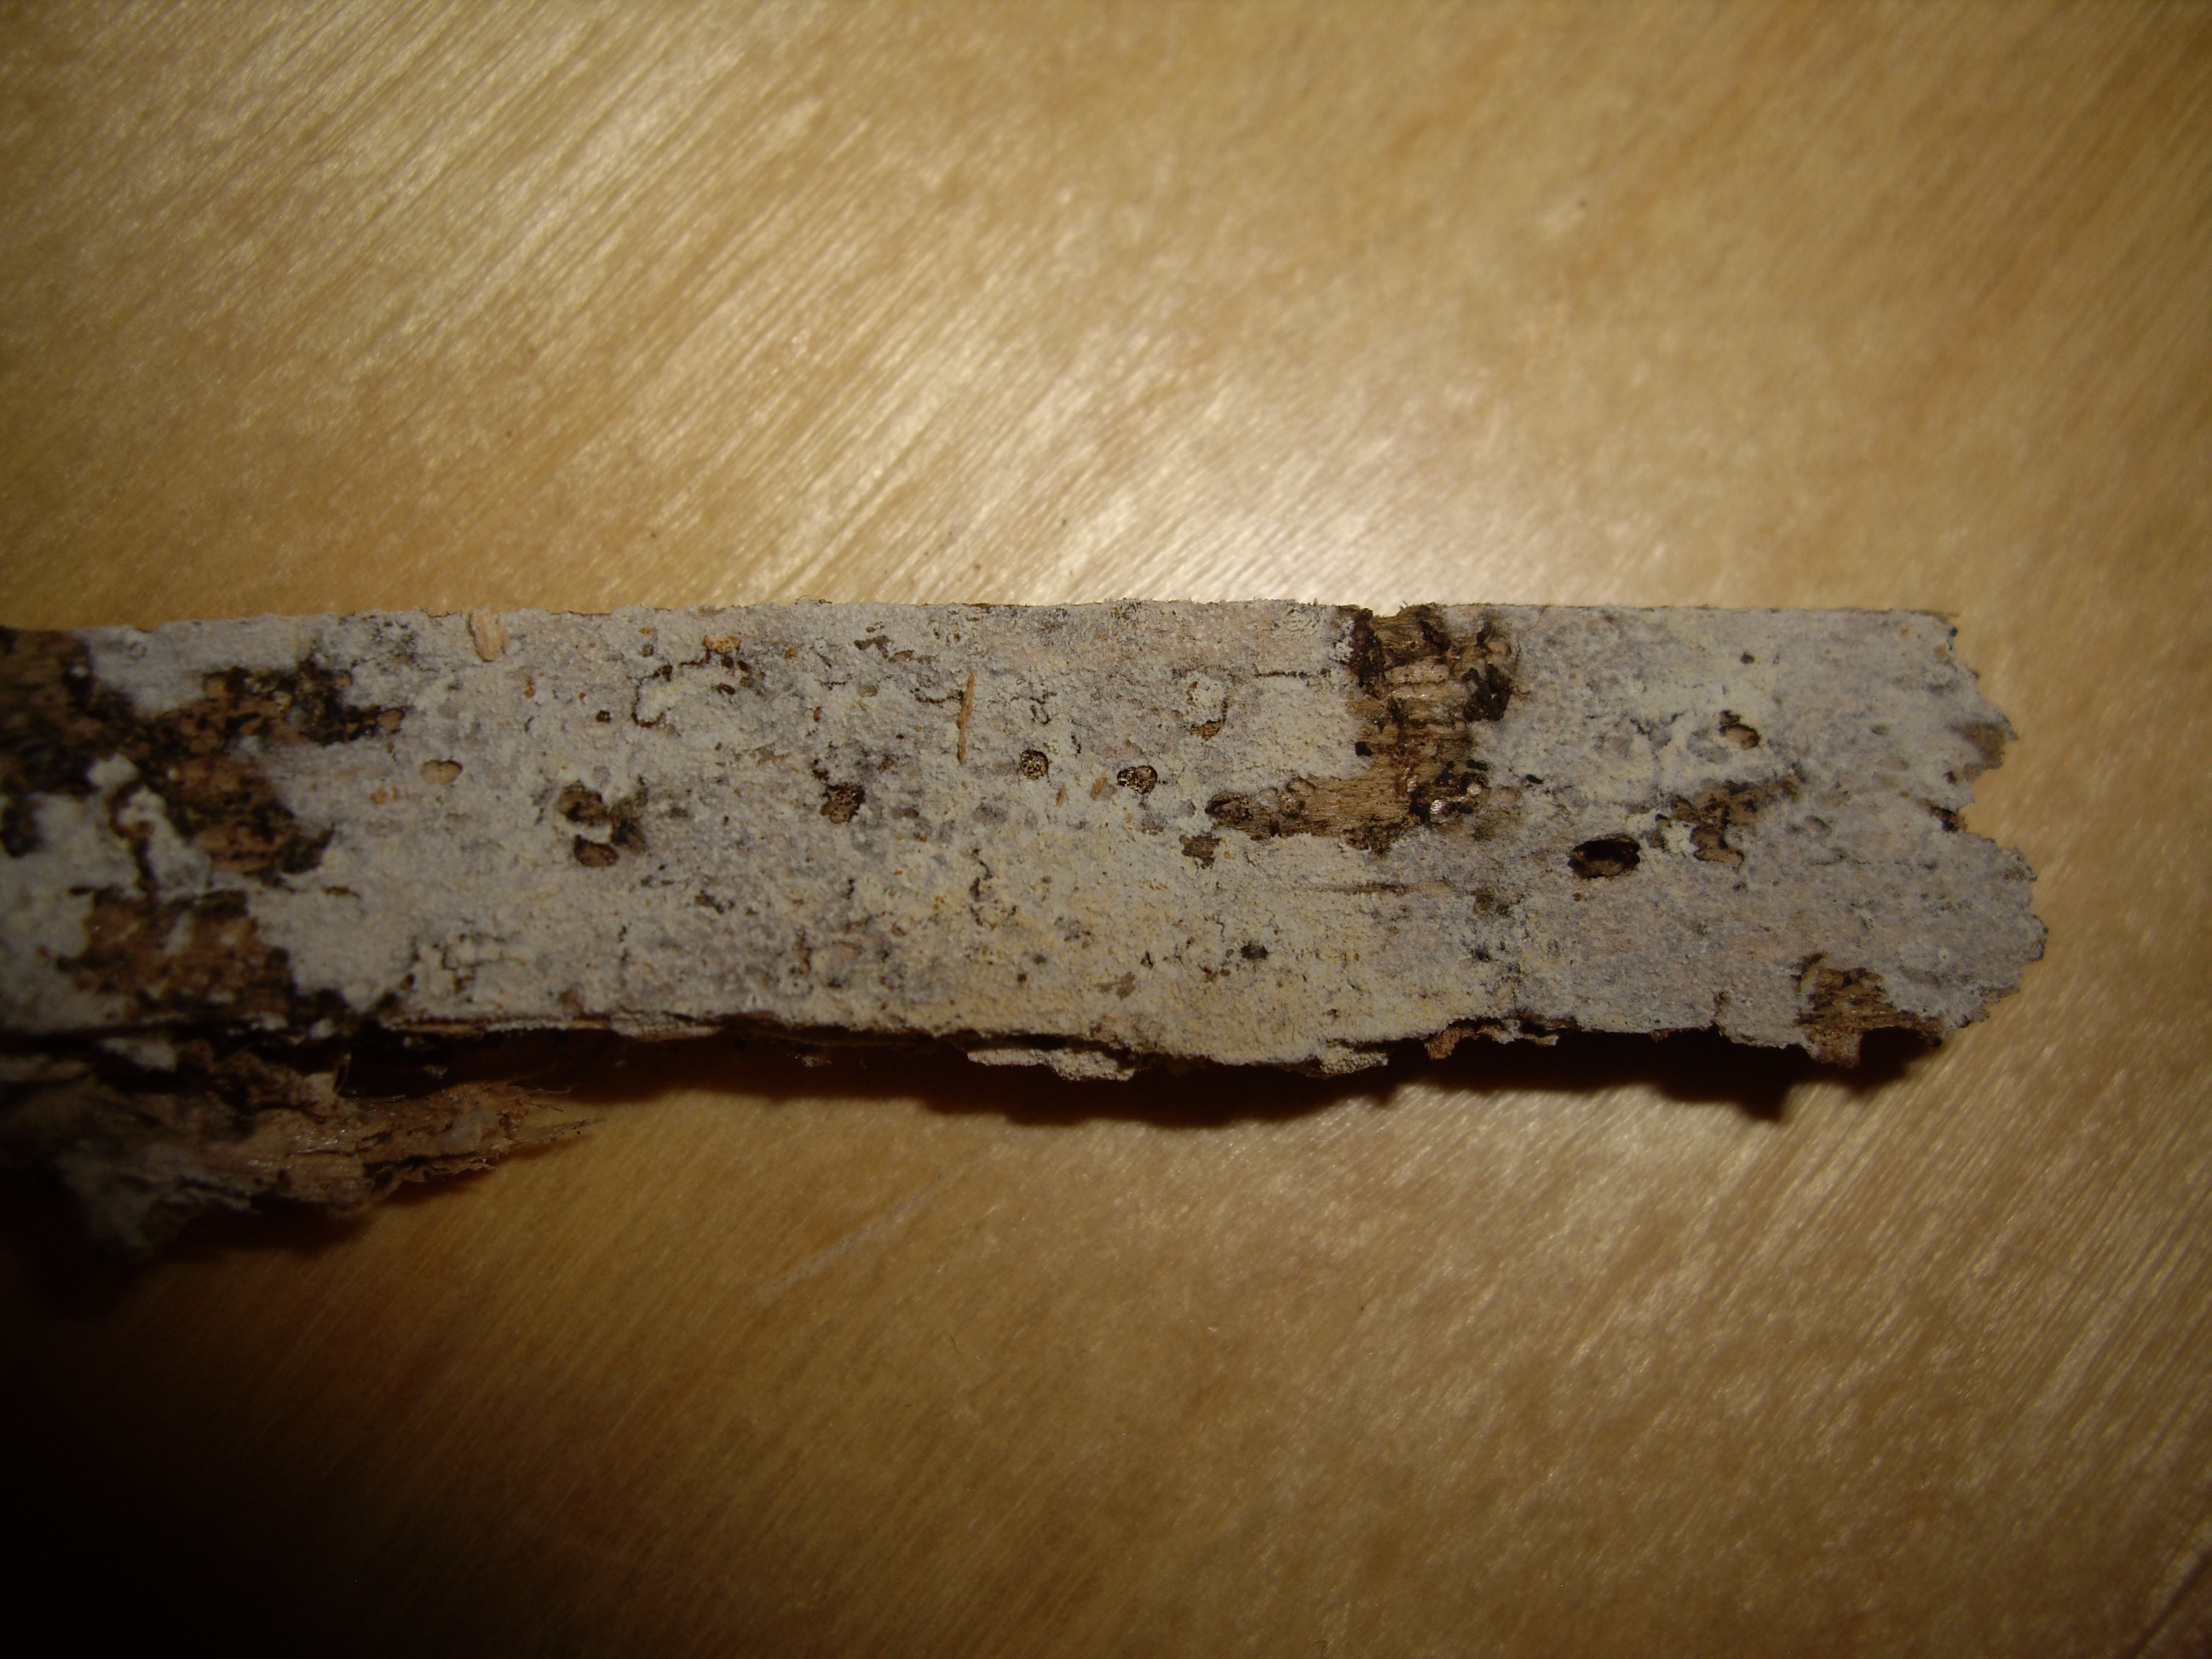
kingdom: Fungi
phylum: Basidiomycota
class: Agaricomycetes
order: Hymenochaetales
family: Hyphodontiaceae
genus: Hyphodontia
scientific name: Hyphodontia
